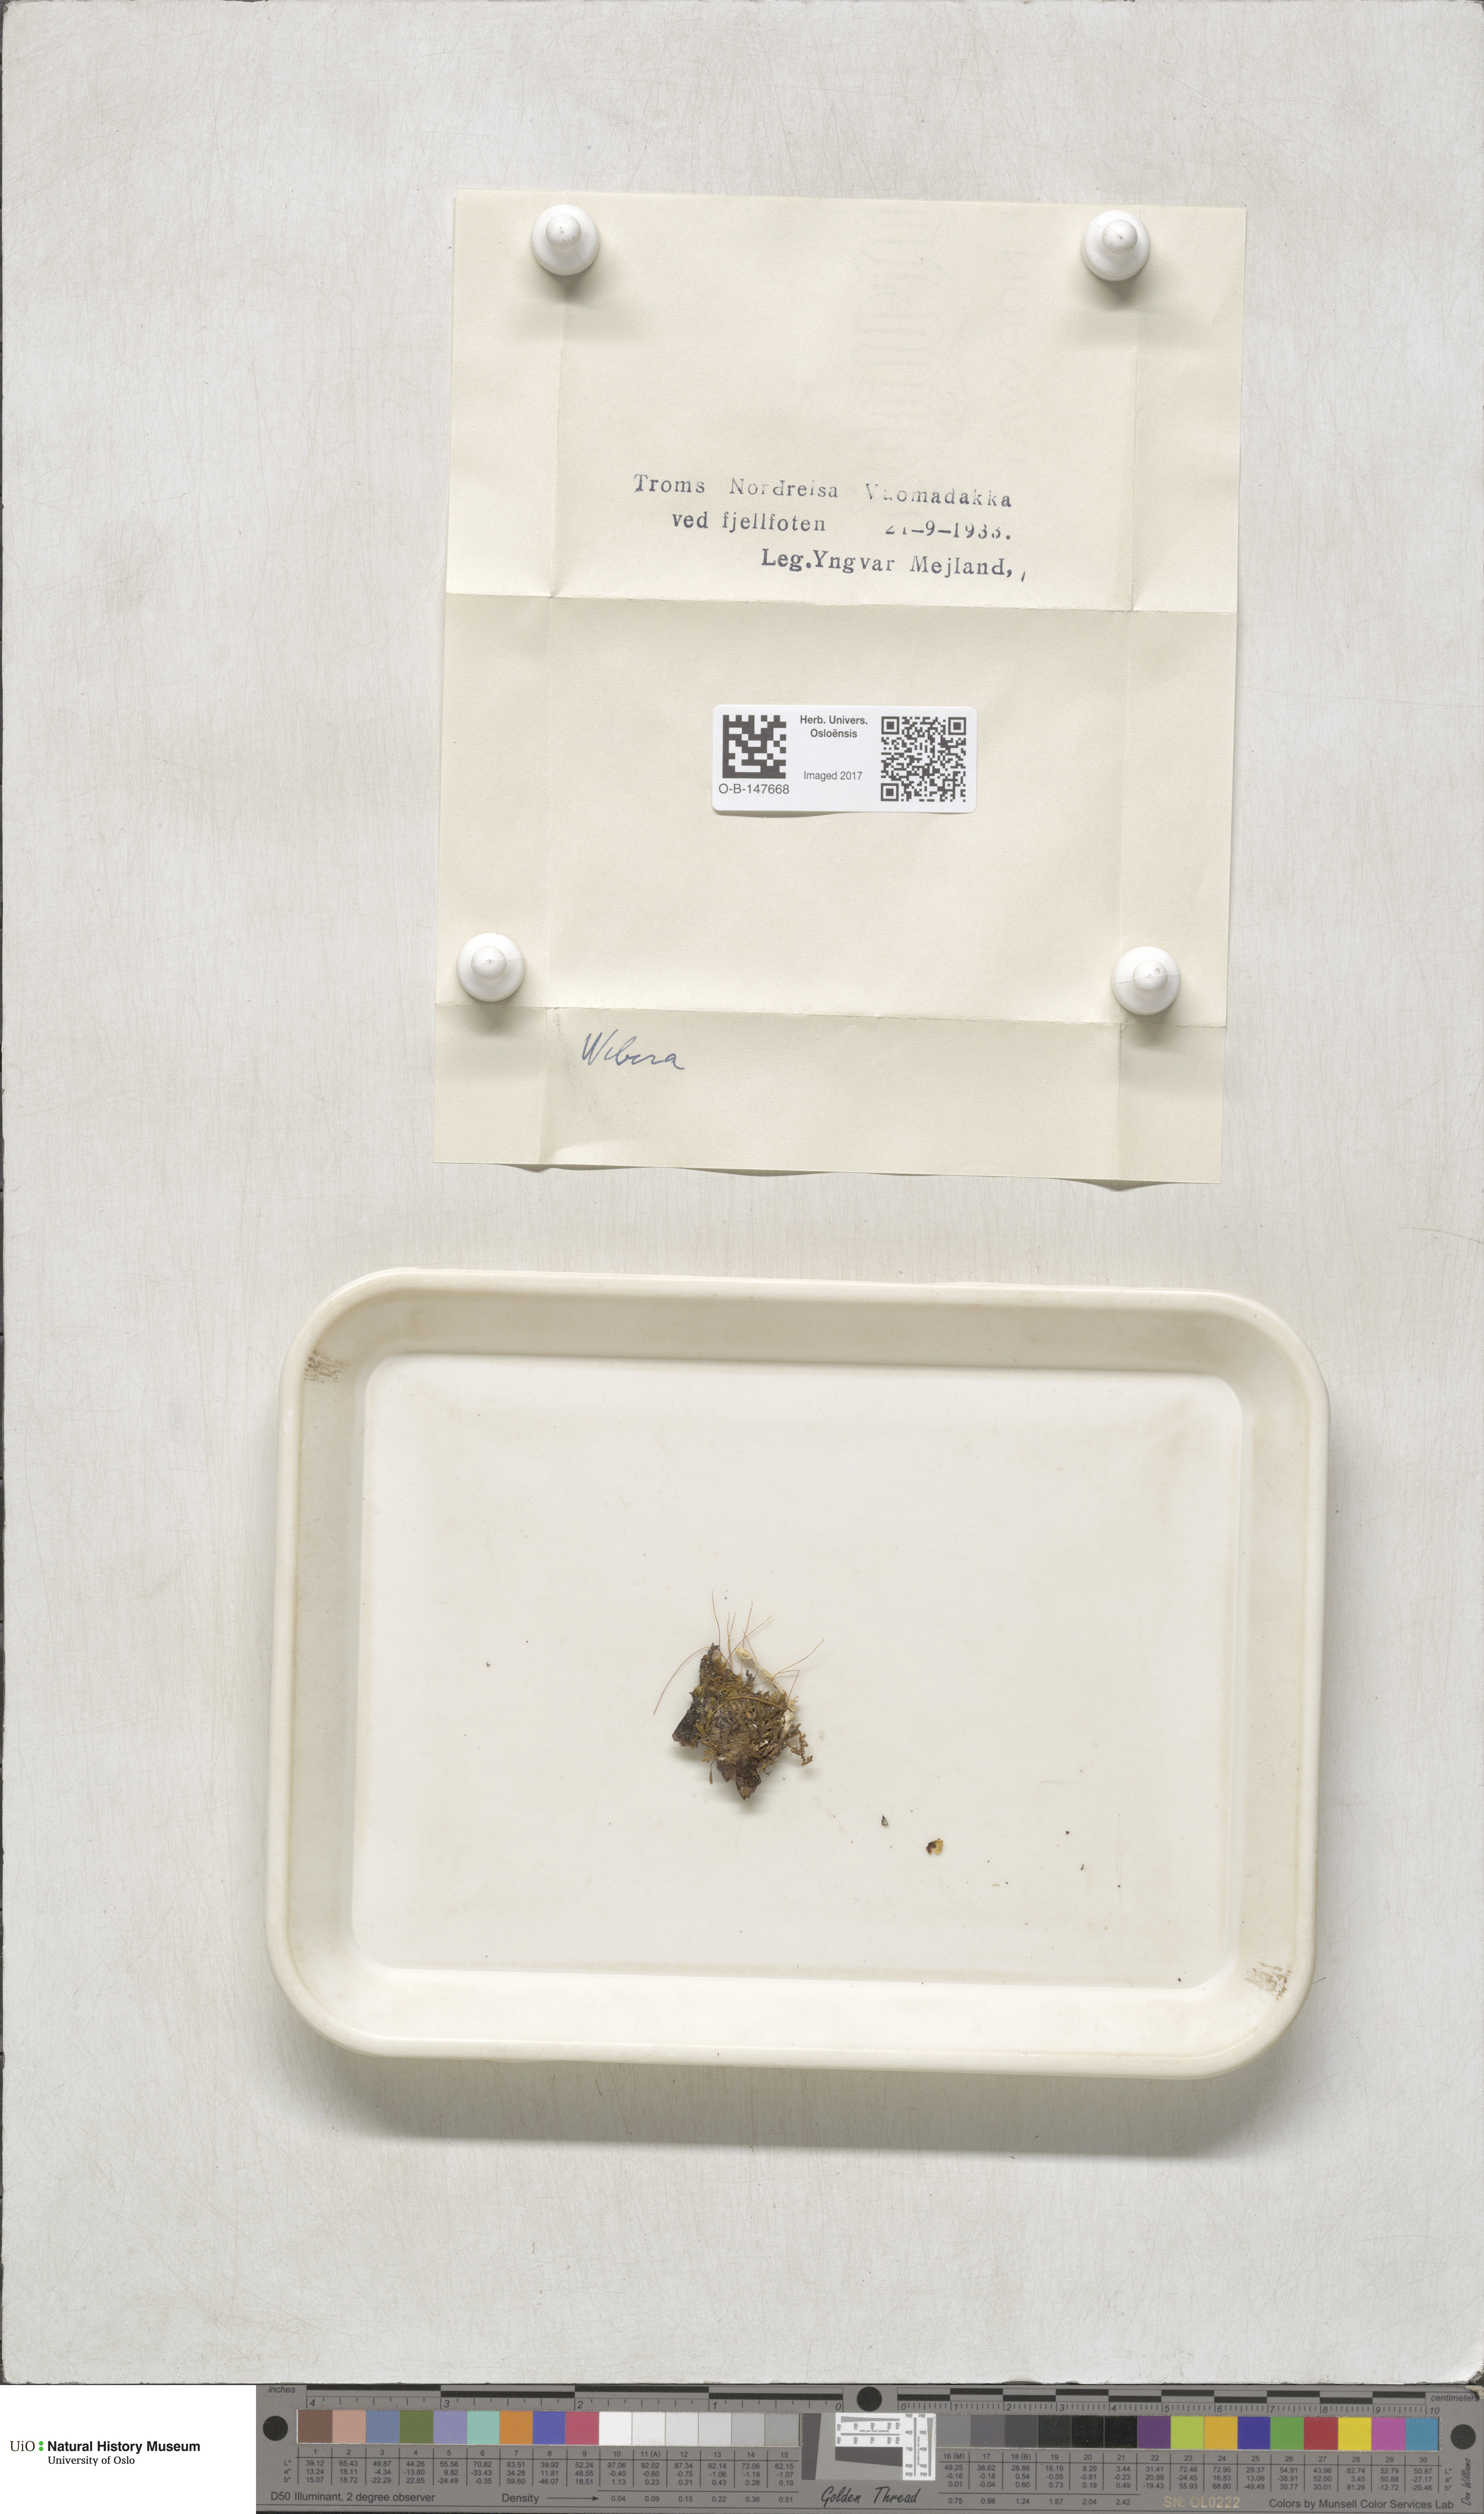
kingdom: Plantae
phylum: Bryophyta
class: Bryopsida
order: Bryales
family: Mniaceae
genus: Pohlia
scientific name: Pohlia
